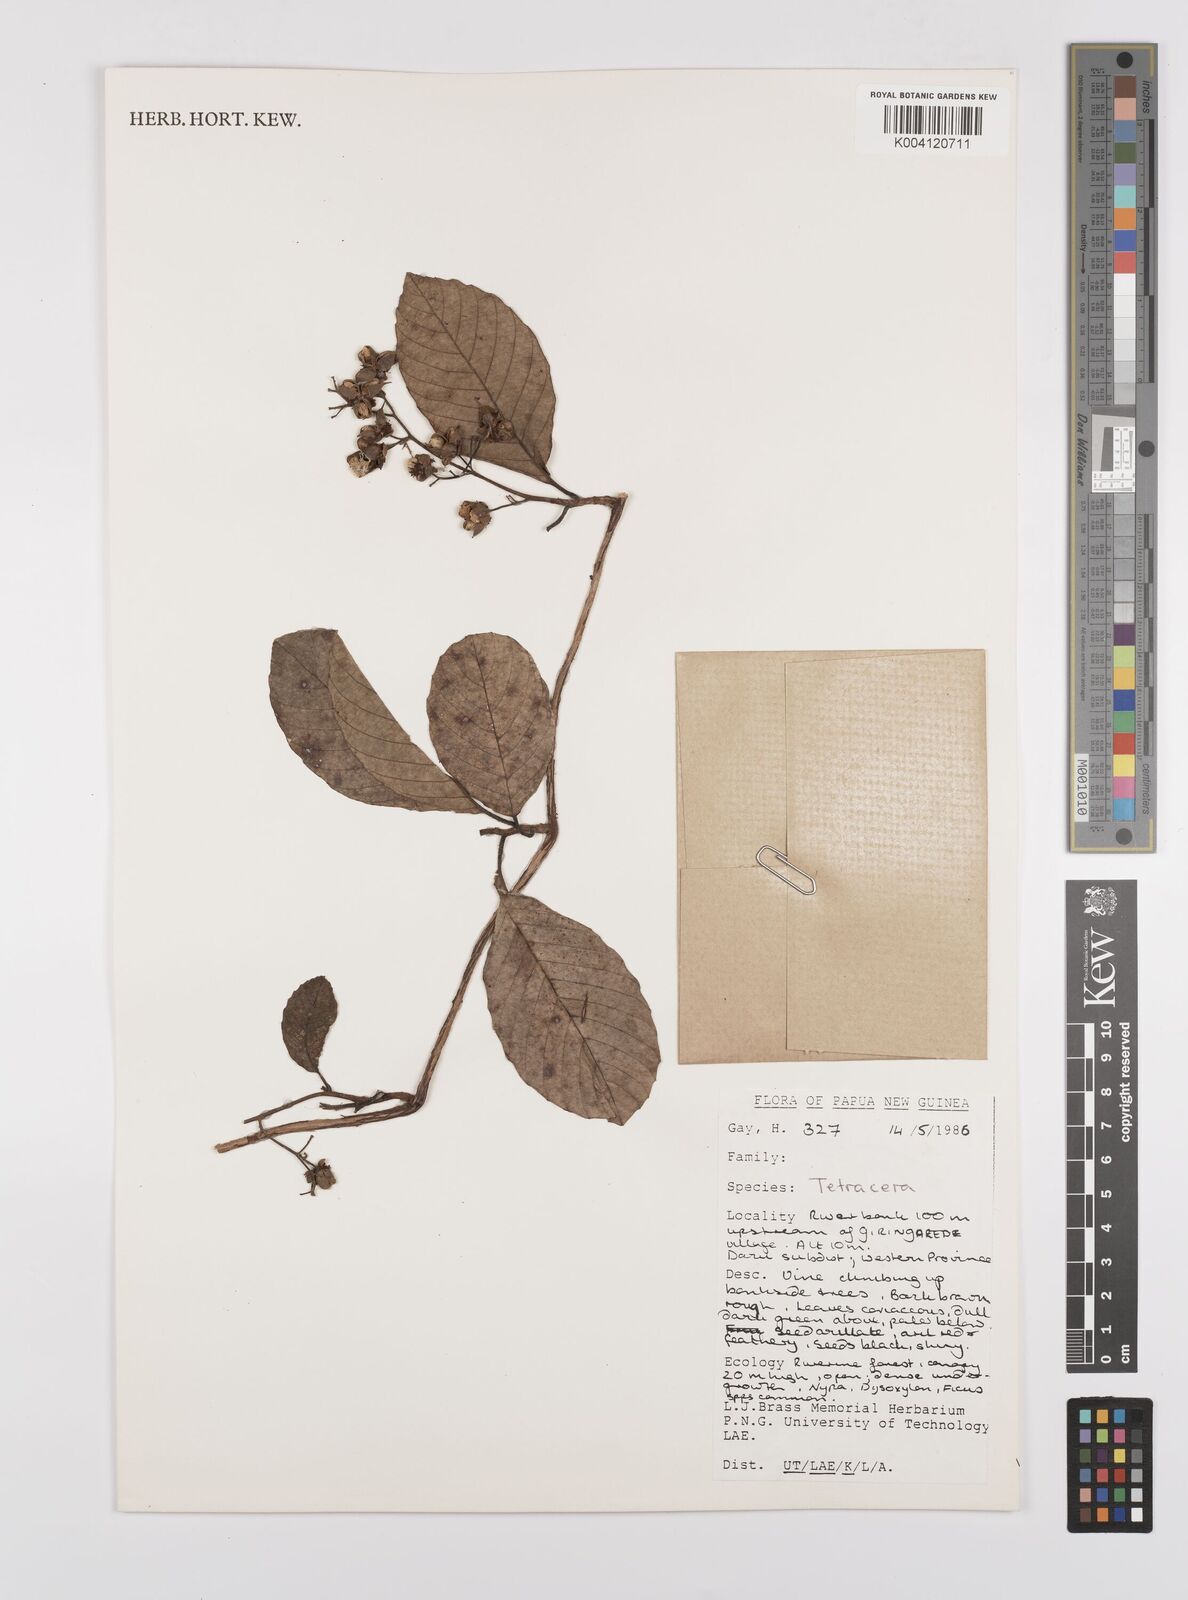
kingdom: Plantae
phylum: Tracheophyta
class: Magnoliopsida
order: Dilleniales
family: Dilleniaceae
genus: Tetracera
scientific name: Tetracera
